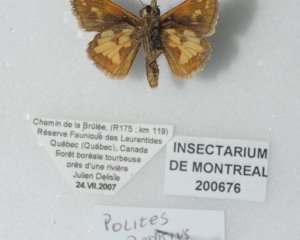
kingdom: Animalia
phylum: Arthropoda
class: Insecta
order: Lepidoptera
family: Hesperiidae
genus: Polites
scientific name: Polites coras
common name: Peck's Skipper
